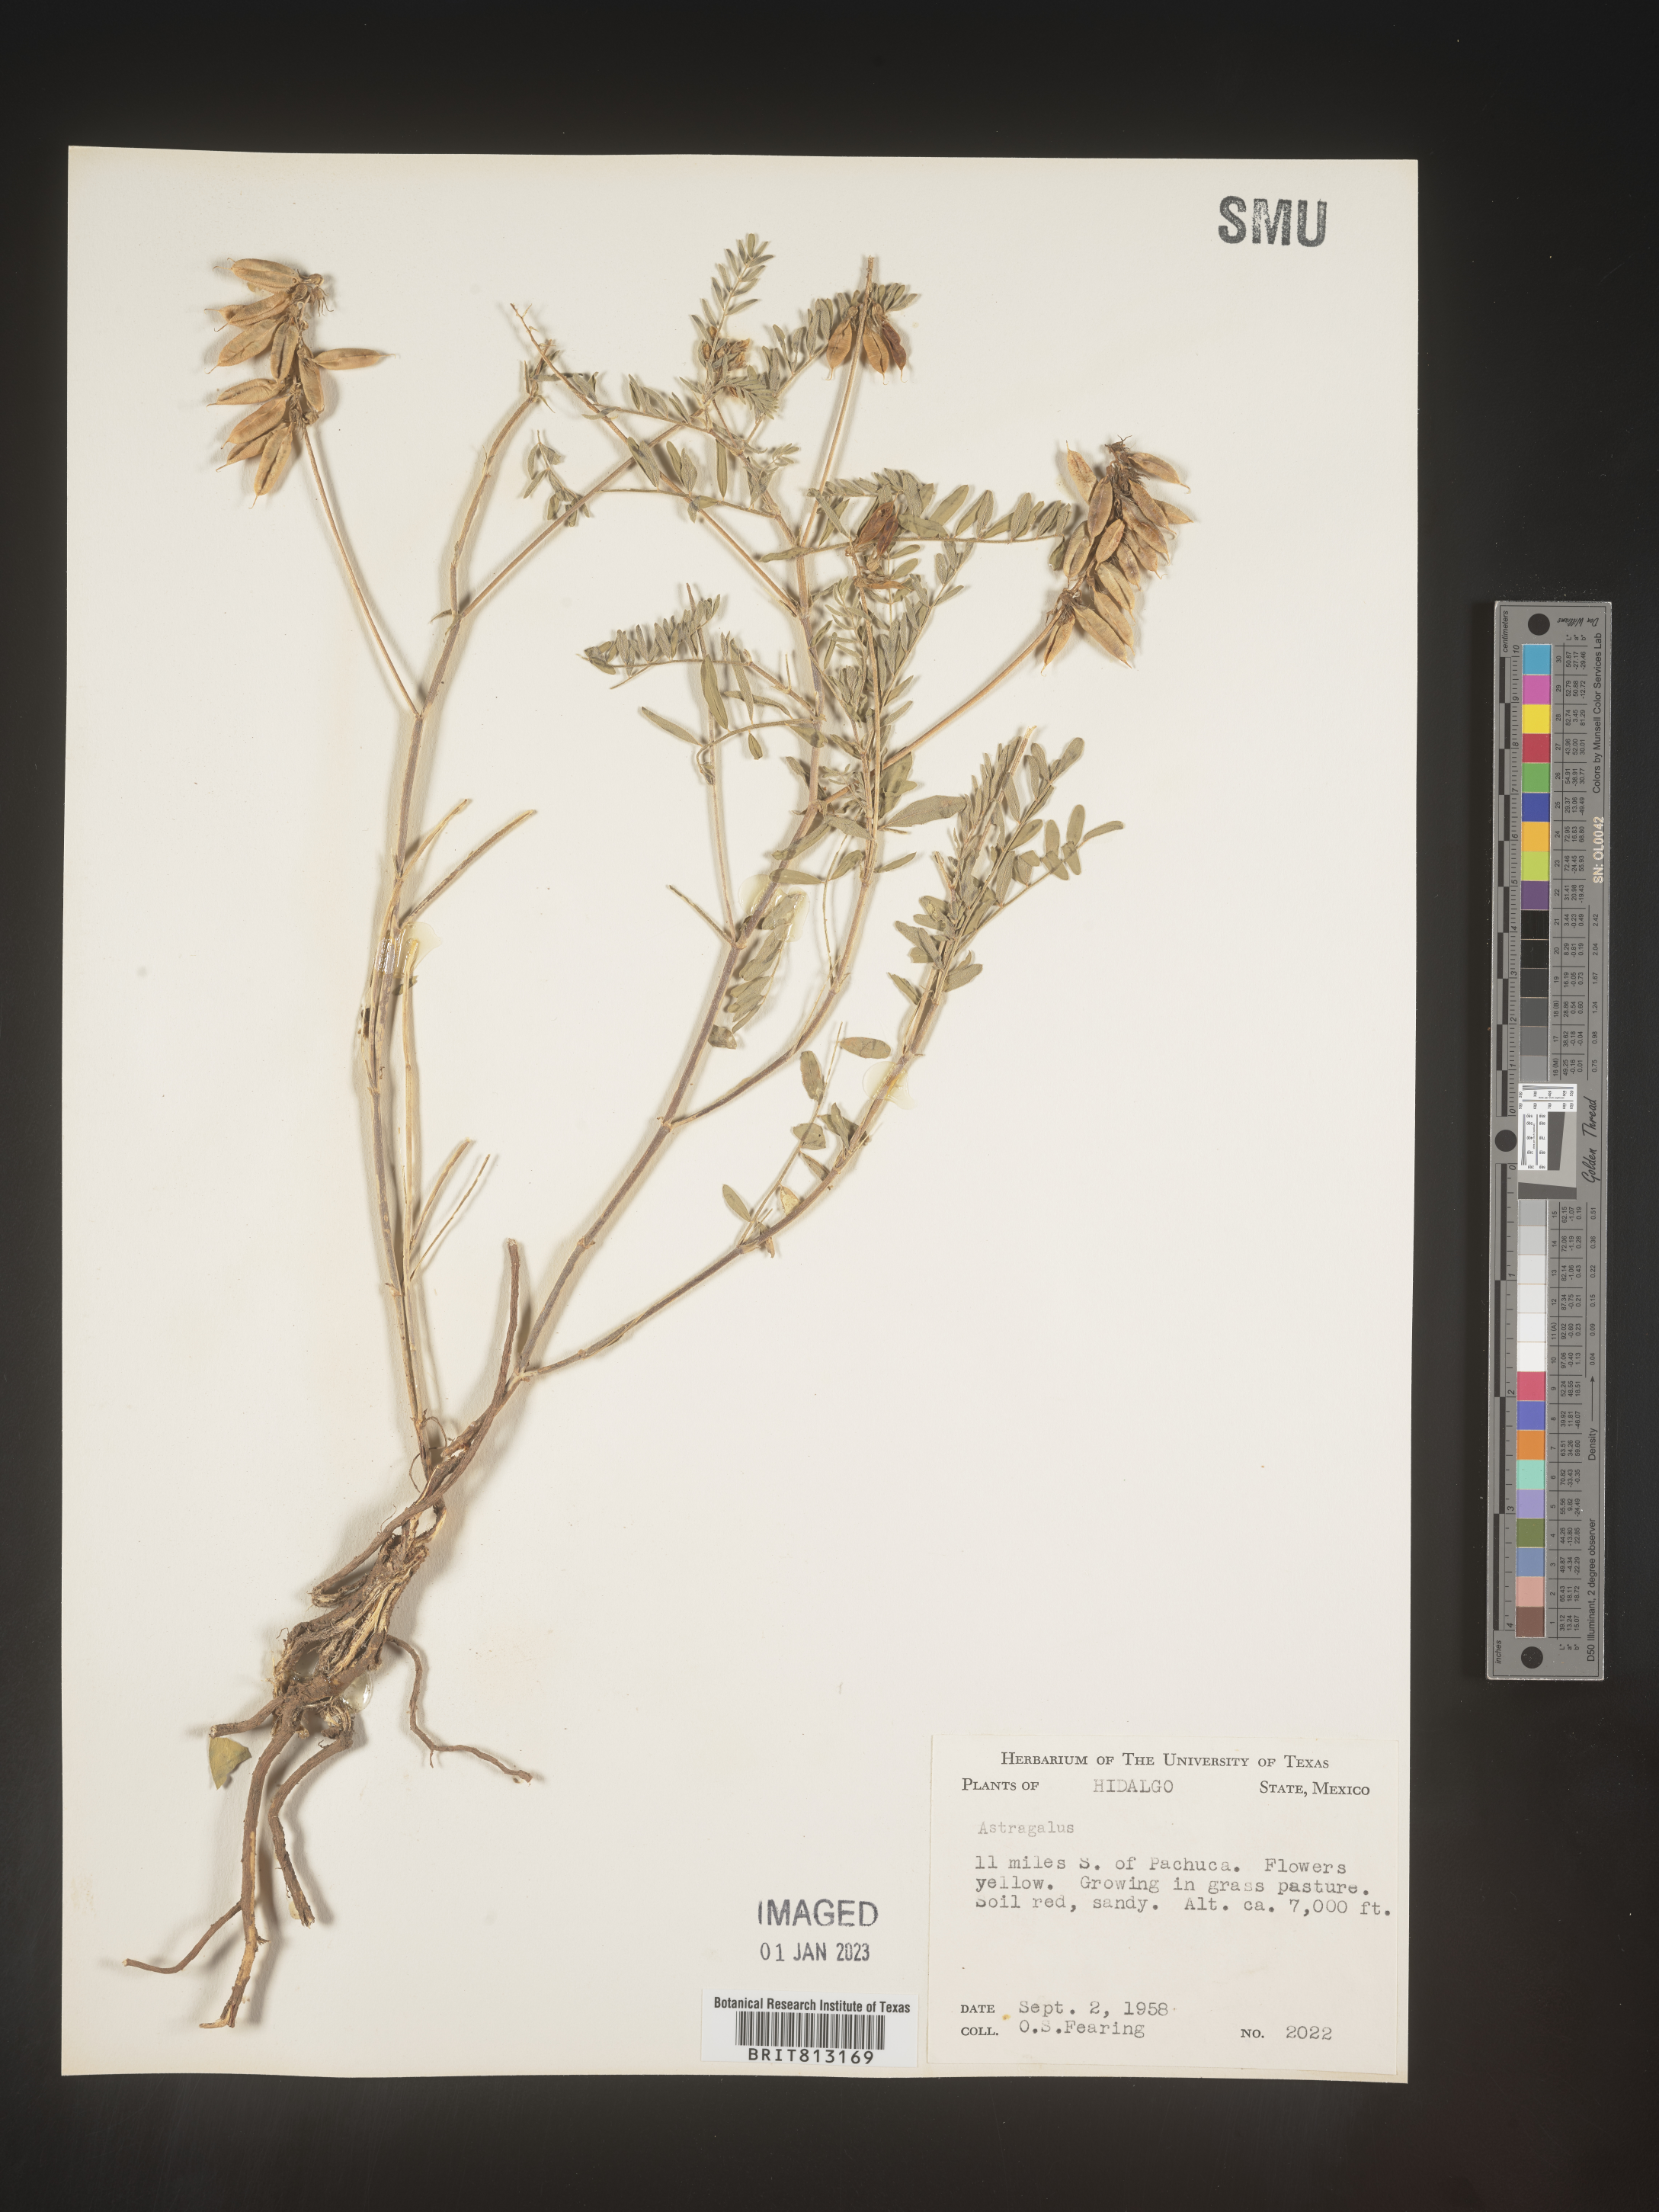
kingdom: Plantae
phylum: Tracheophyta
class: Magnoliopsida
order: Fabales
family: Fabaceae
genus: Astragalus
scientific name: Astragalus
